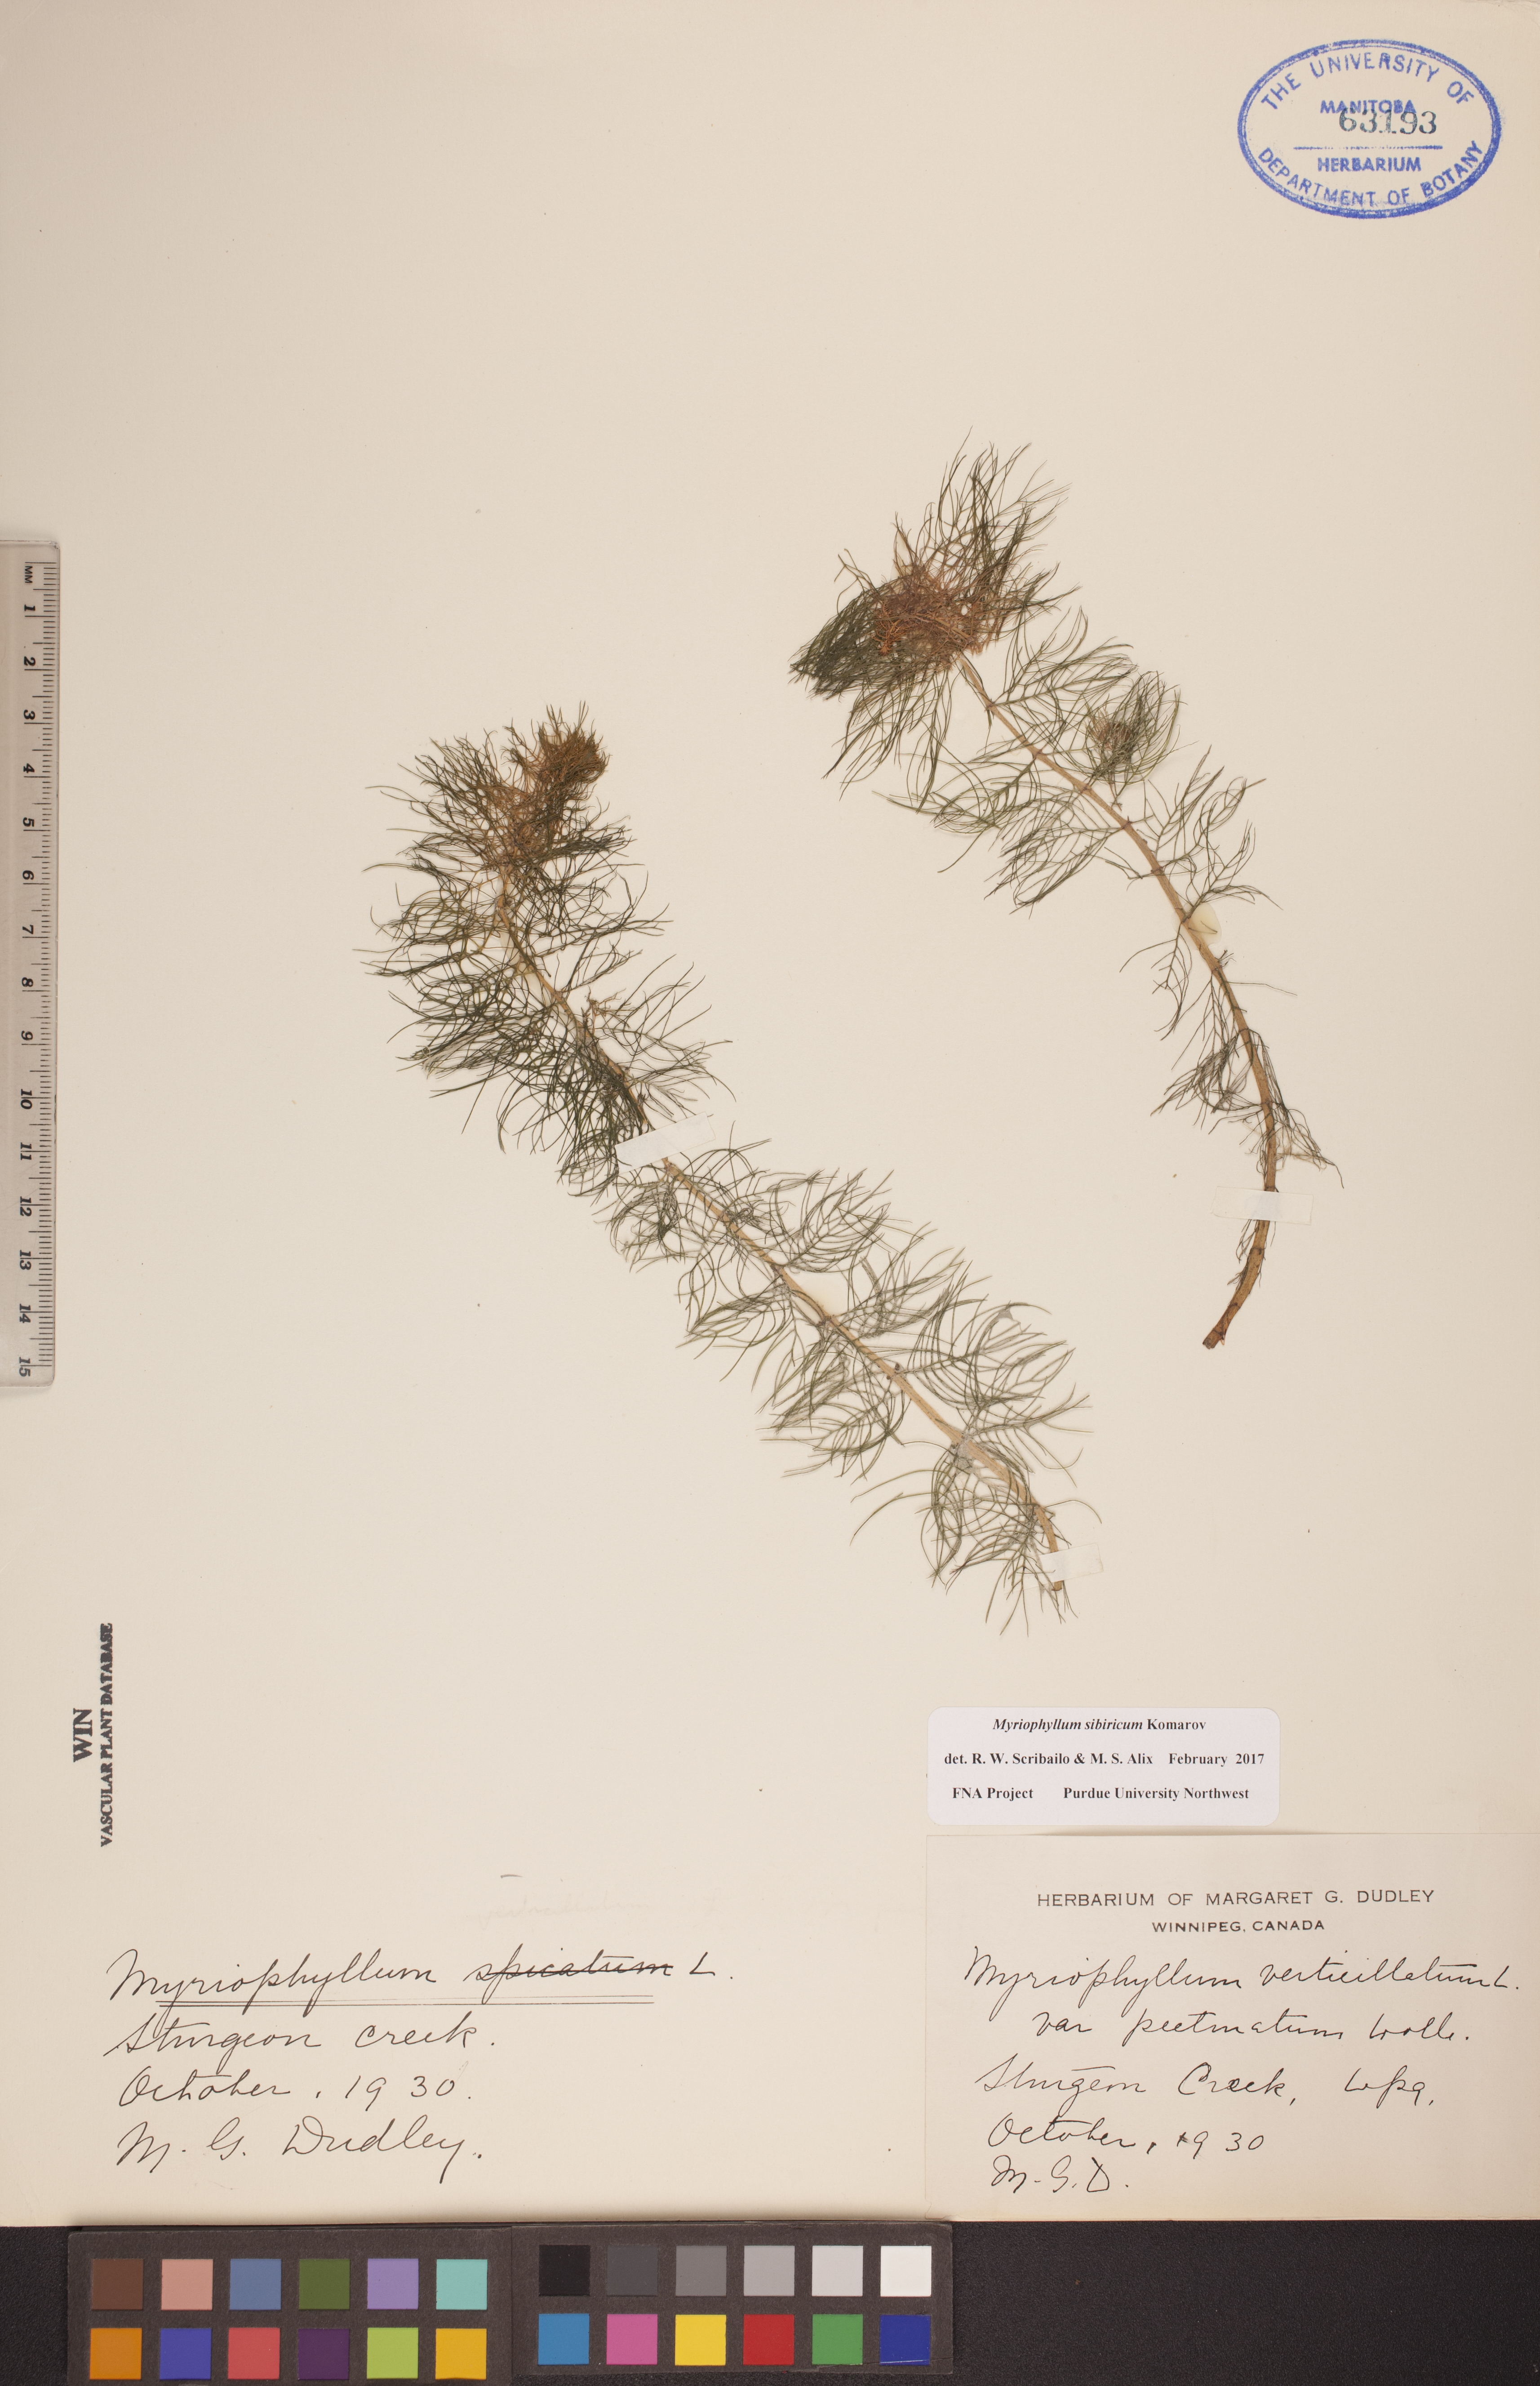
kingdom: Plantae
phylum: Tracheophyta
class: Magnoliopsida
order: Saxifragales
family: Haloragaceae
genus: Myriophyllum
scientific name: Myriophyllum sibiricum
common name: Siberian water-milfoil
